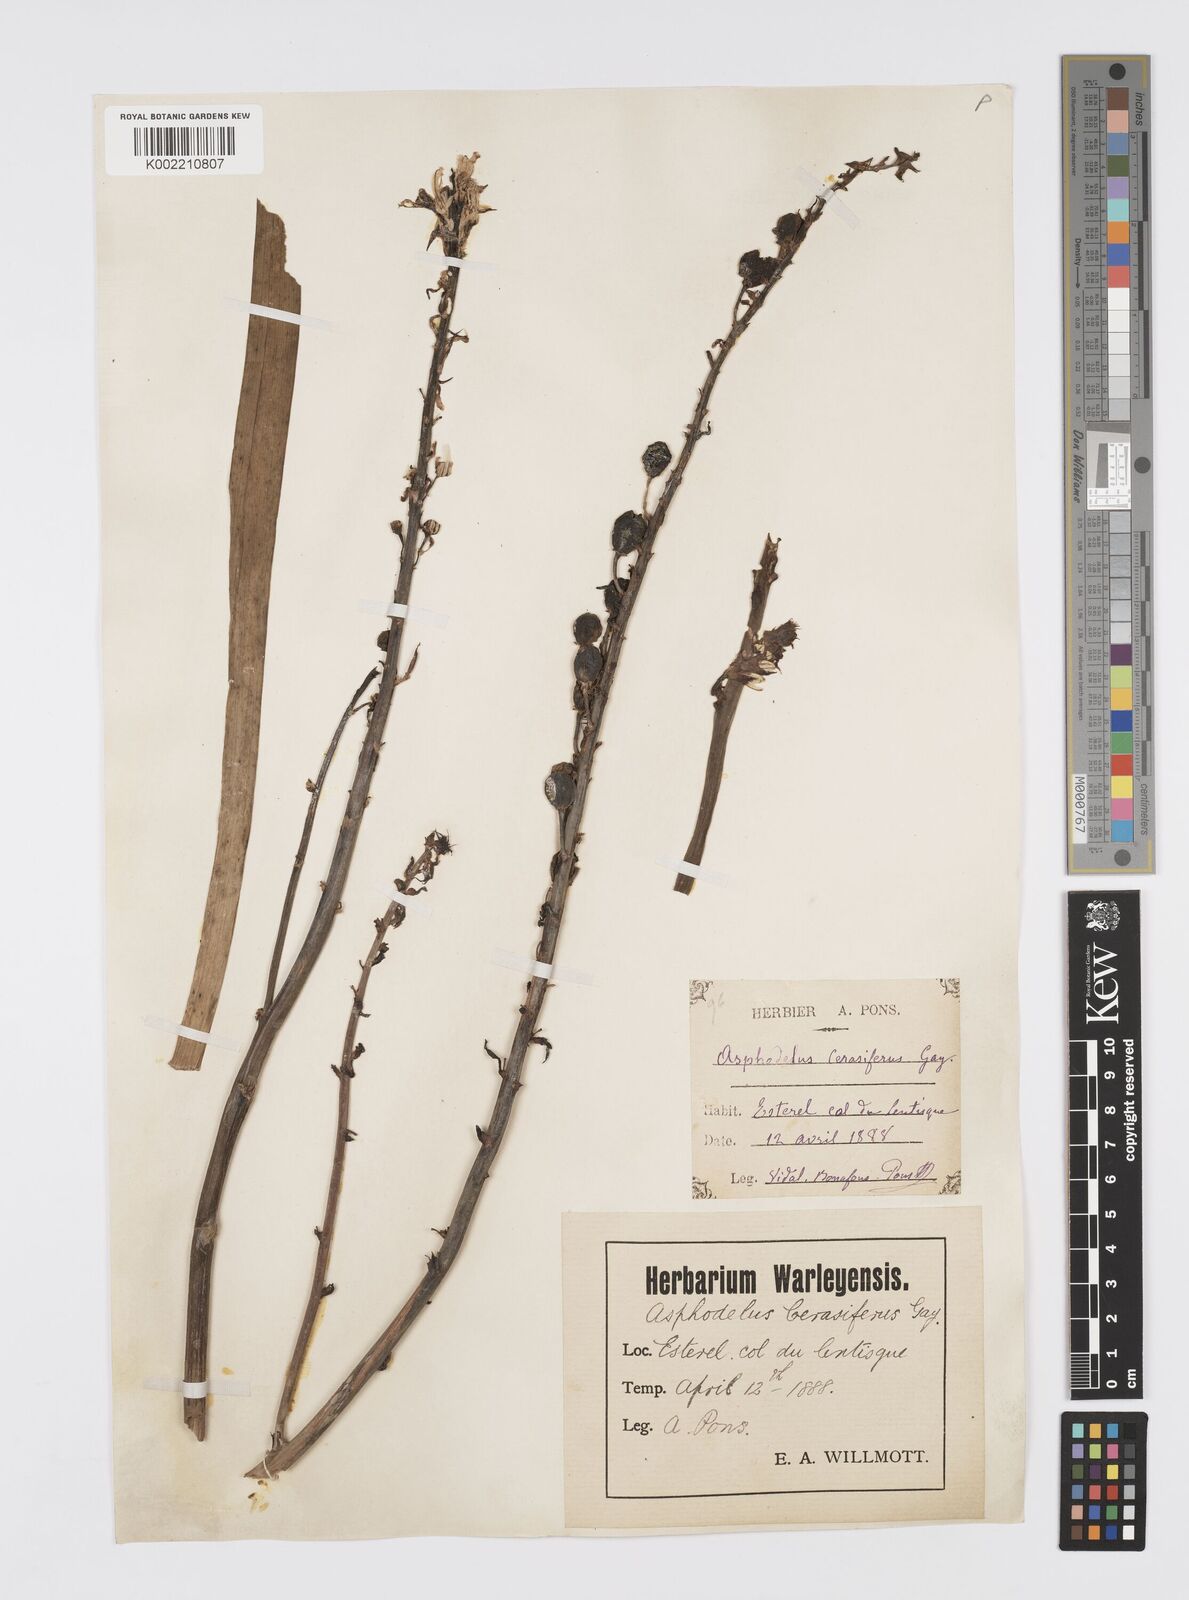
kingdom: Plantae
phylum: Tracheophyta
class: Liliopsida
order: Asparagales
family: Asphodelaceae
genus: Asphodelus
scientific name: Asphodelus cerasifer
